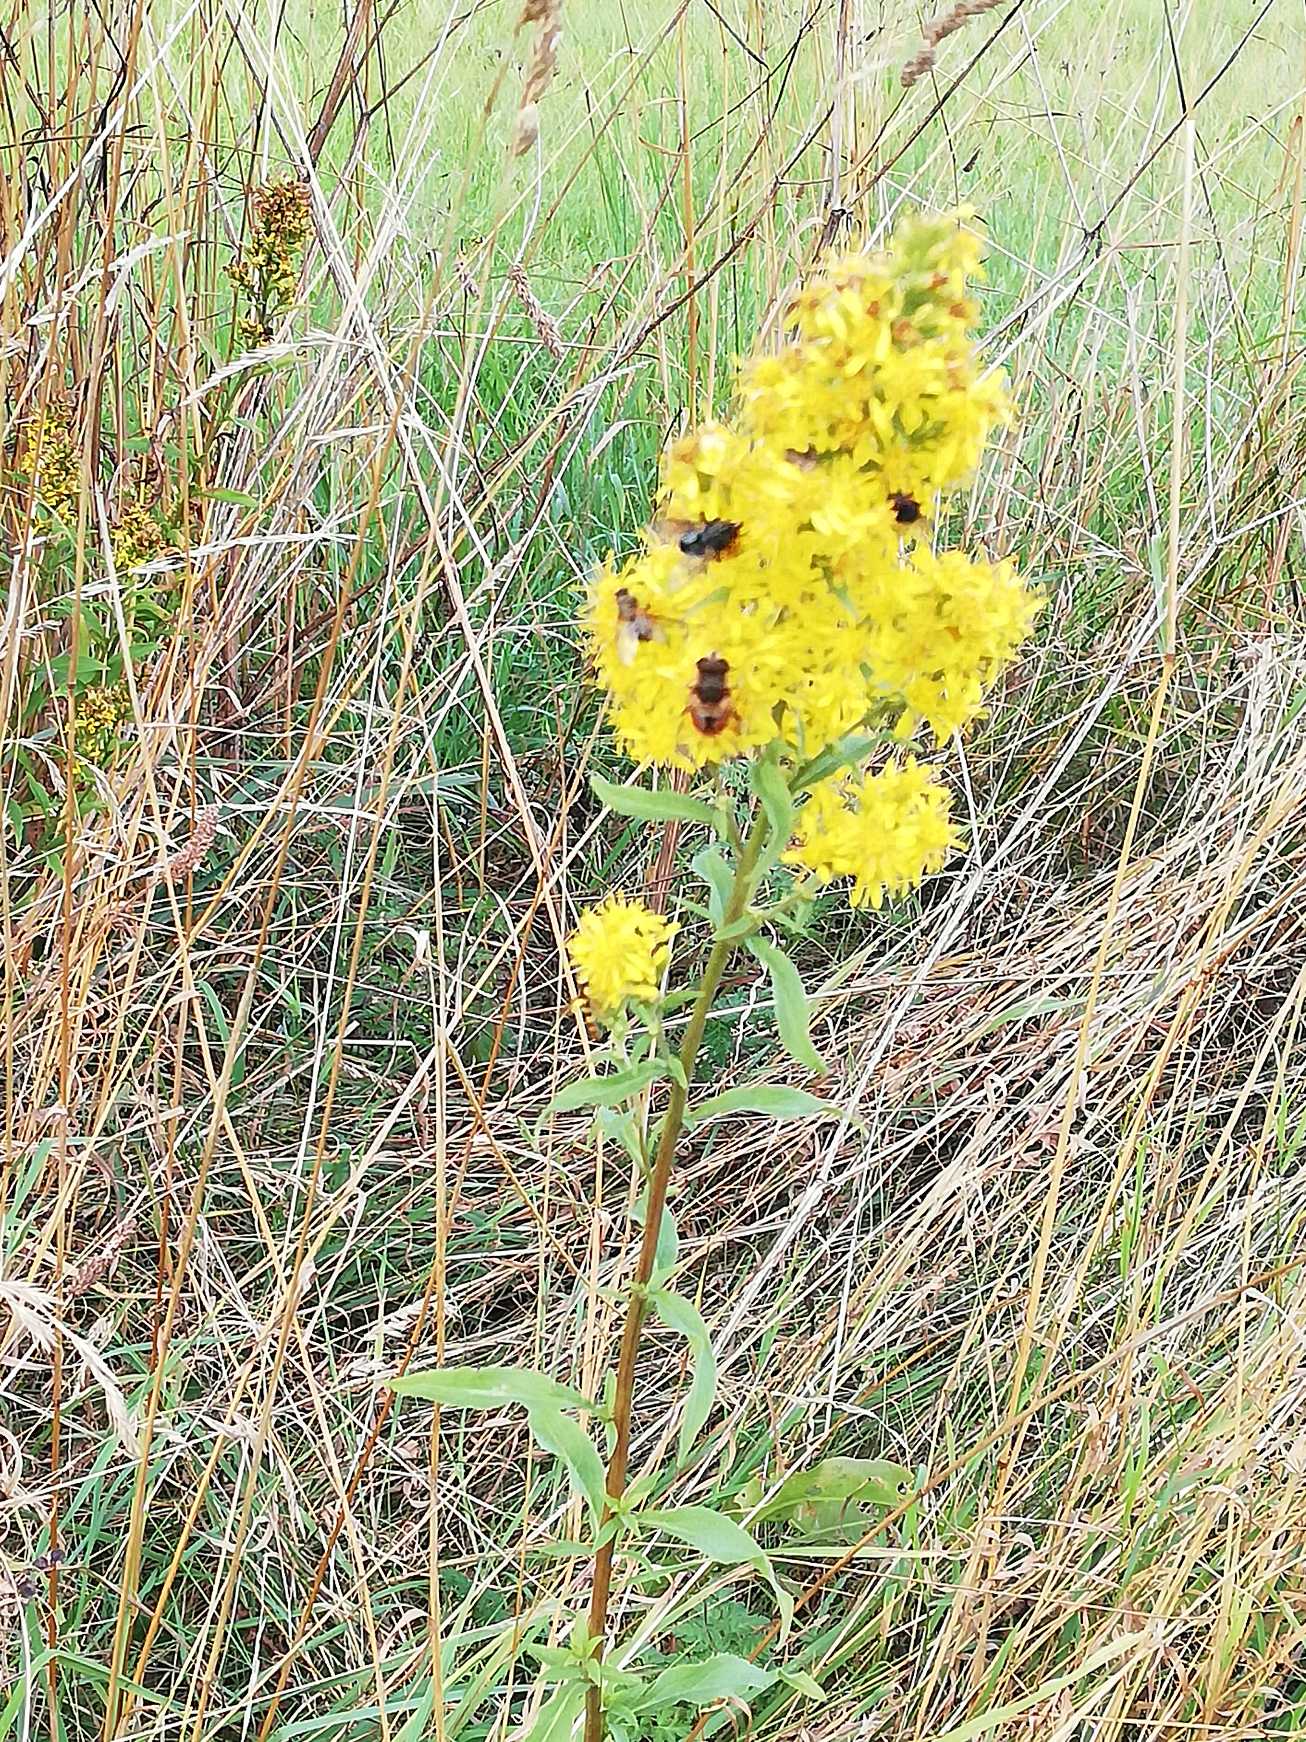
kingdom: Plantae
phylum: Tracheophyta
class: Magnoliopsida
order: Asterales
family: Asteraceae
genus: Solidago
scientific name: Solidago virgaurea
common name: Almindelig gyldenris
